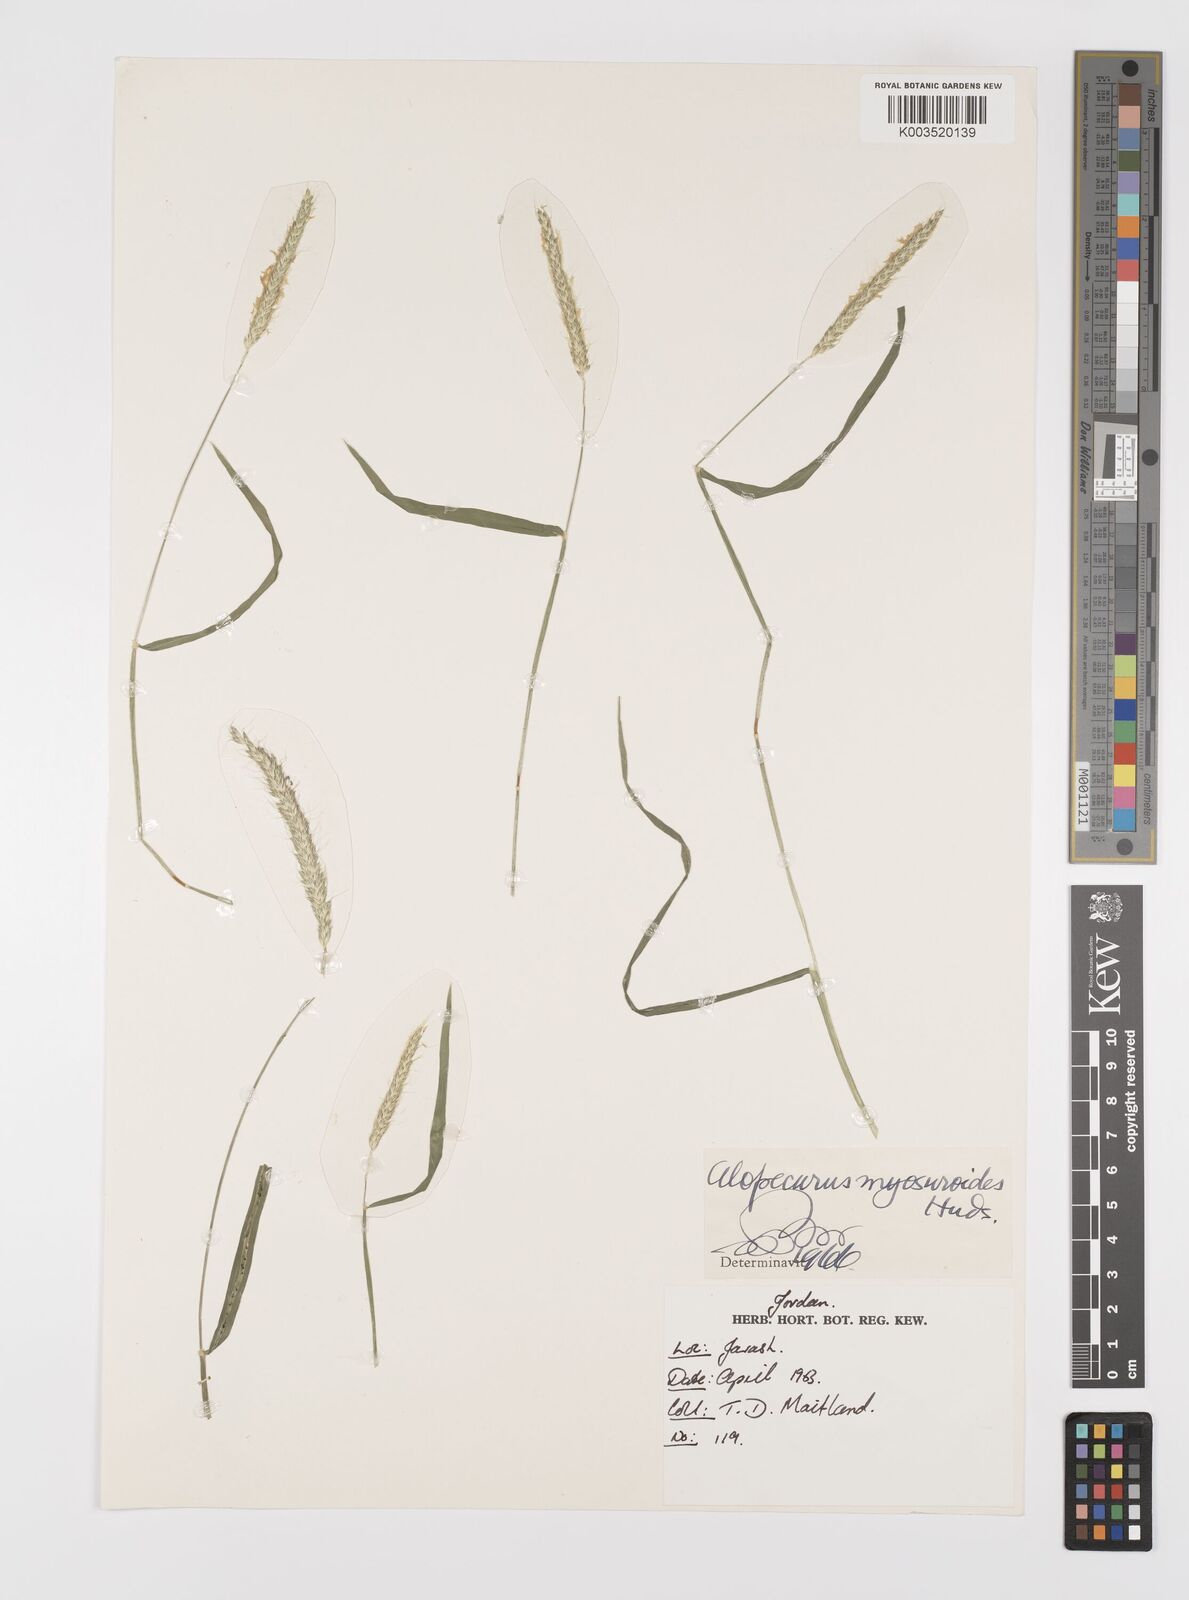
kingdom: Plantae
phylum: Tracheophyta
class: Liliopsida
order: Poales
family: Poaceae
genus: Alopecurus
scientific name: Alopecurus myosuroides
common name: Black-grass
